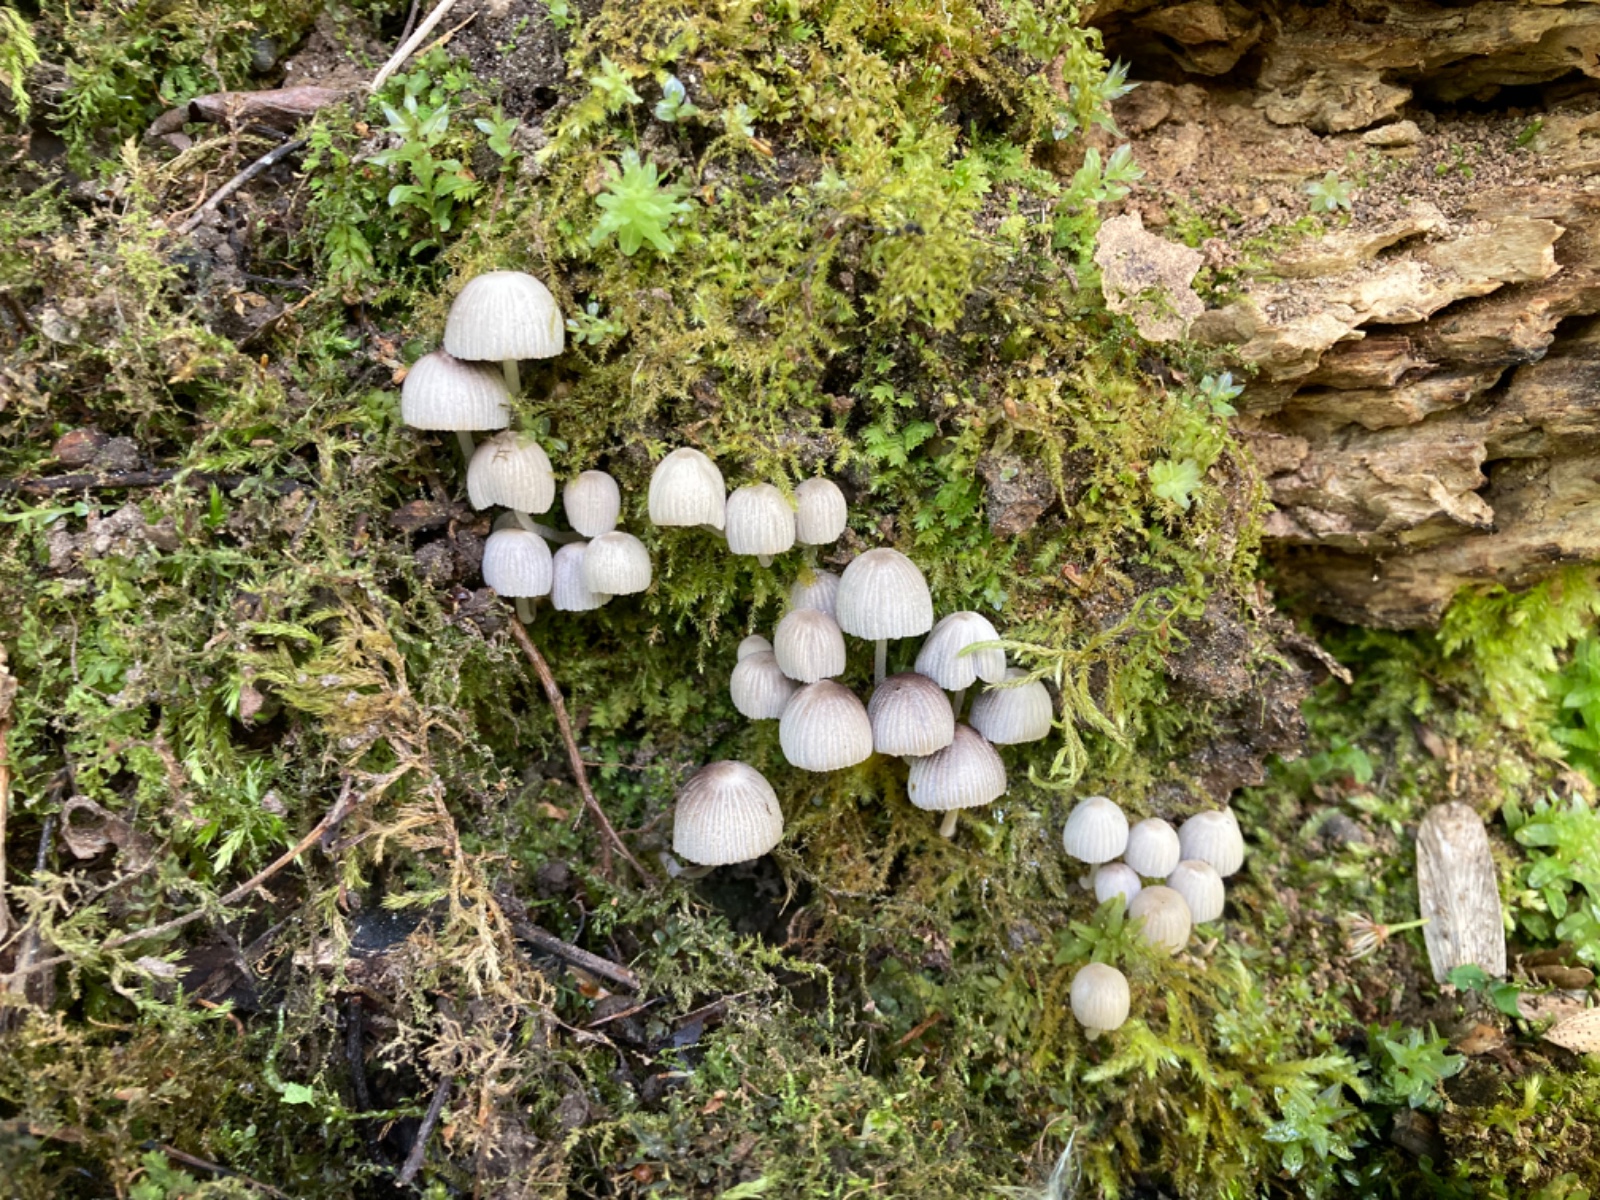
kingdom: Fungi
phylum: Basidiomycota
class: Agaricomycetes
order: Agaricales
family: Psathyrellaceae
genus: Coprinellus
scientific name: Coprinellus disseminatus
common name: bredsået blækhat
